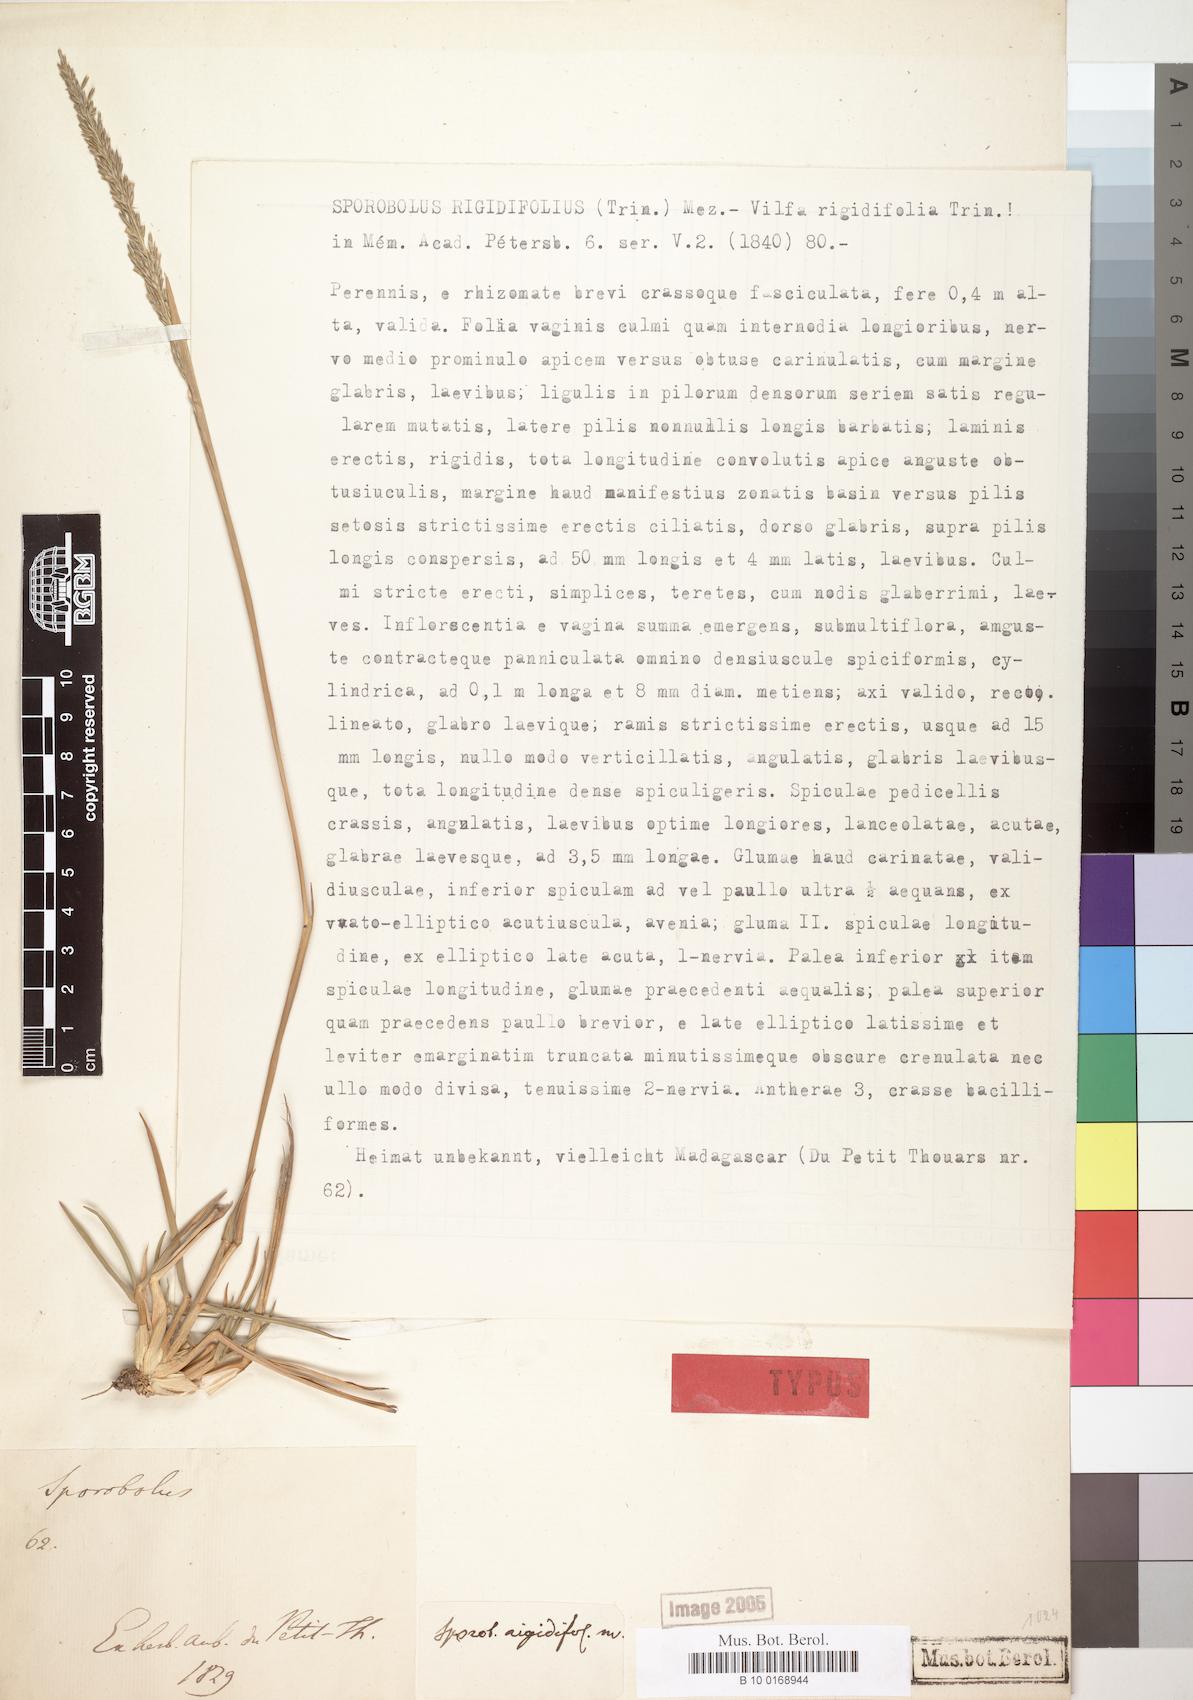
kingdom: Plantae
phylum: Tracheophyta
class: Liliopsida
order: Poales
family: Poaceae
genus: Sporobolus
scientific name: Sporobolus rigidifolius
